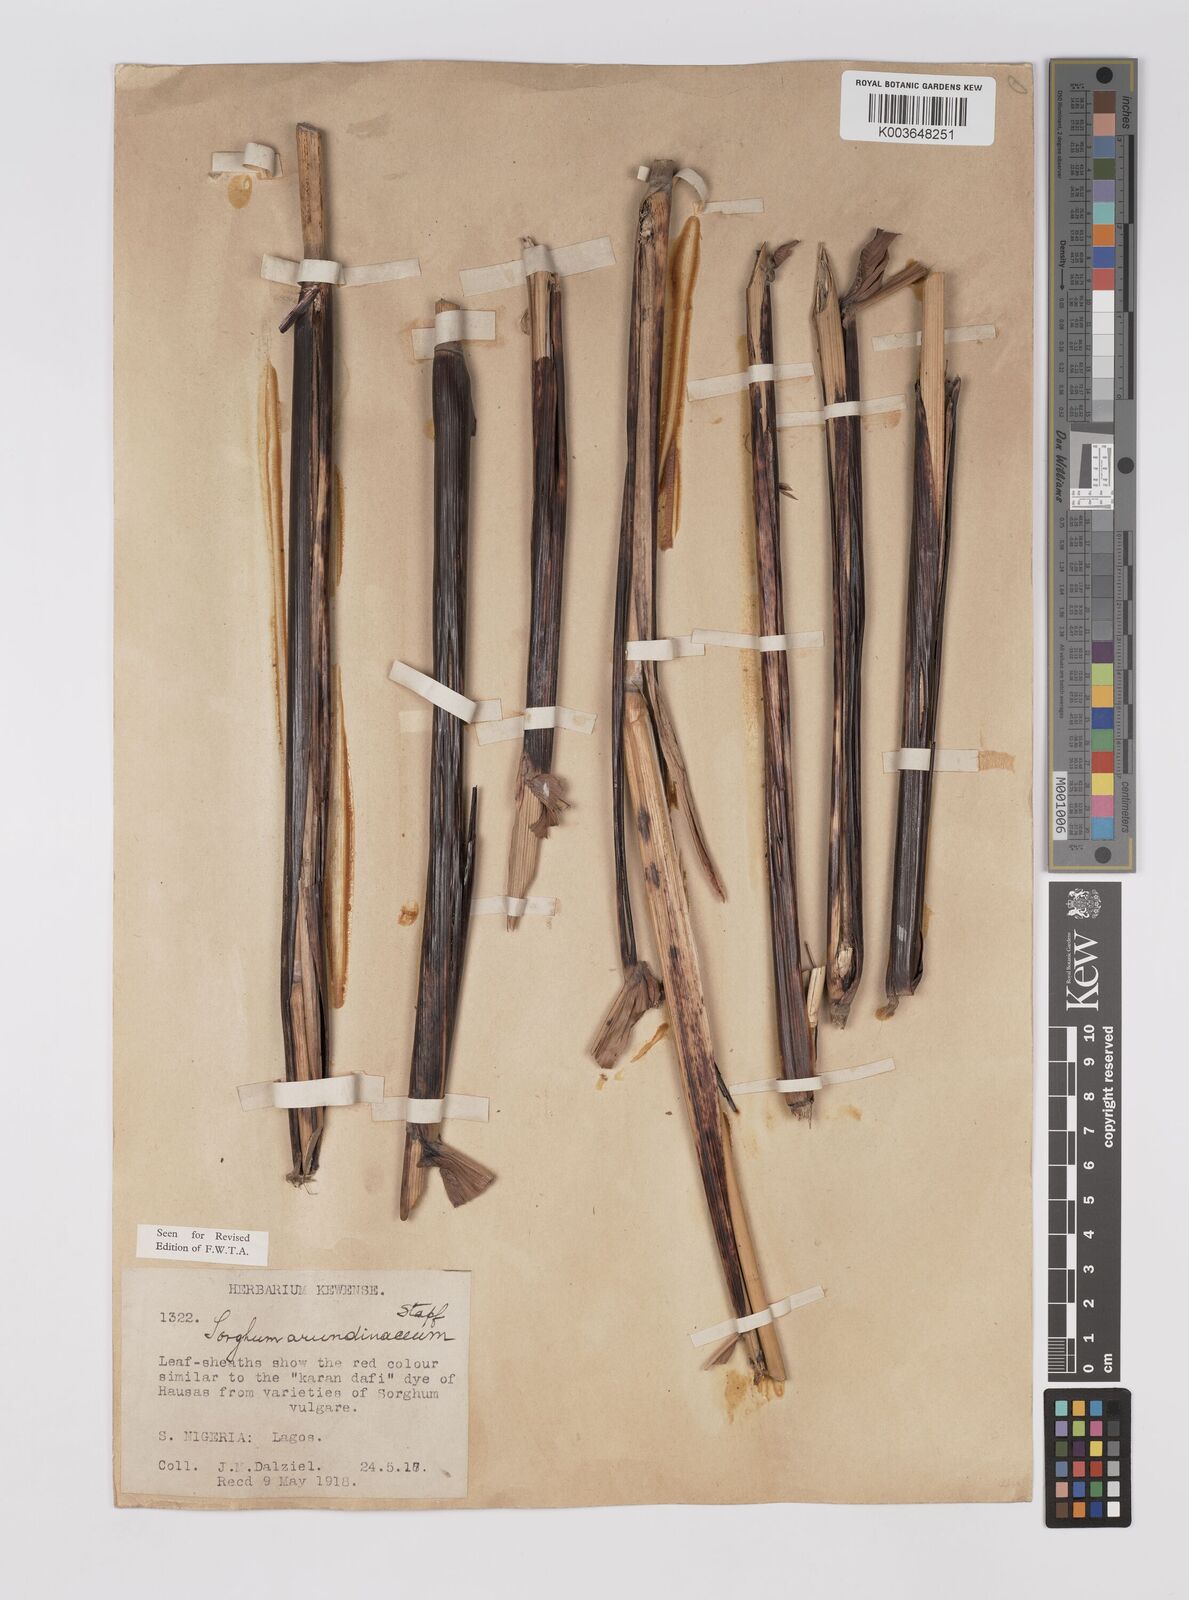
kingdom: Plantae
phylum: Tracheophyta
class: Liliopsida
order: Poales
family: Poaceae
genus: Sorghum
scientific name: Sorghum arundinaceum
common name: Sorghum
